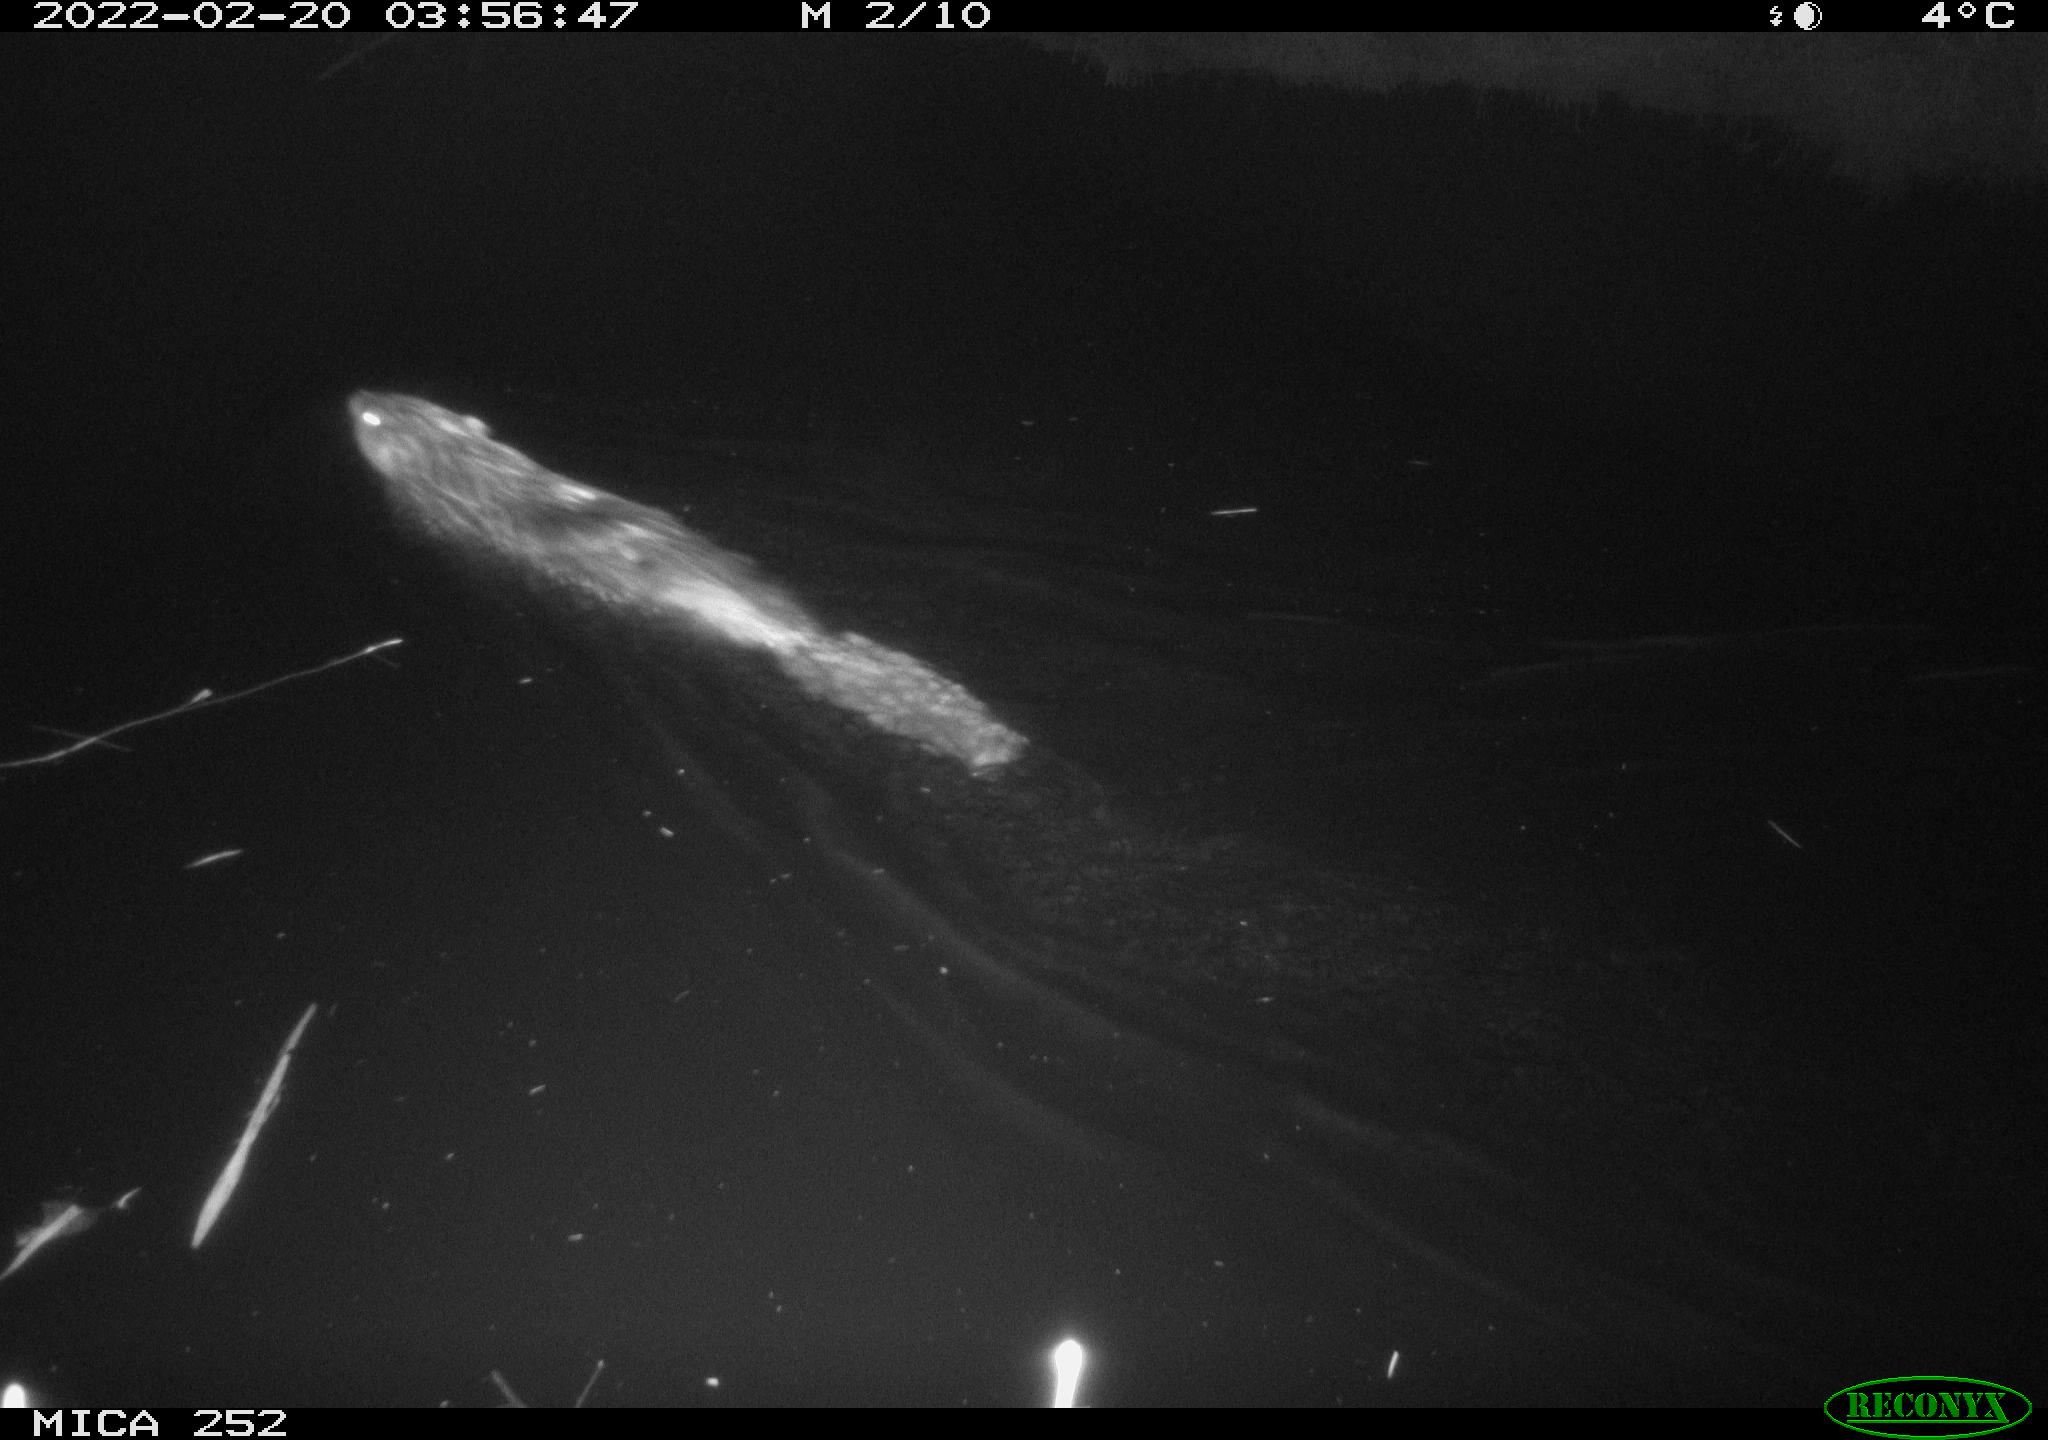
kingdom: Animalia
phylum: Chordata
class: Mammalia
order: Rodentia
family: Castoridae
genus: Castor
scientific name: Castor fiber
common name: Eurasian beaver
